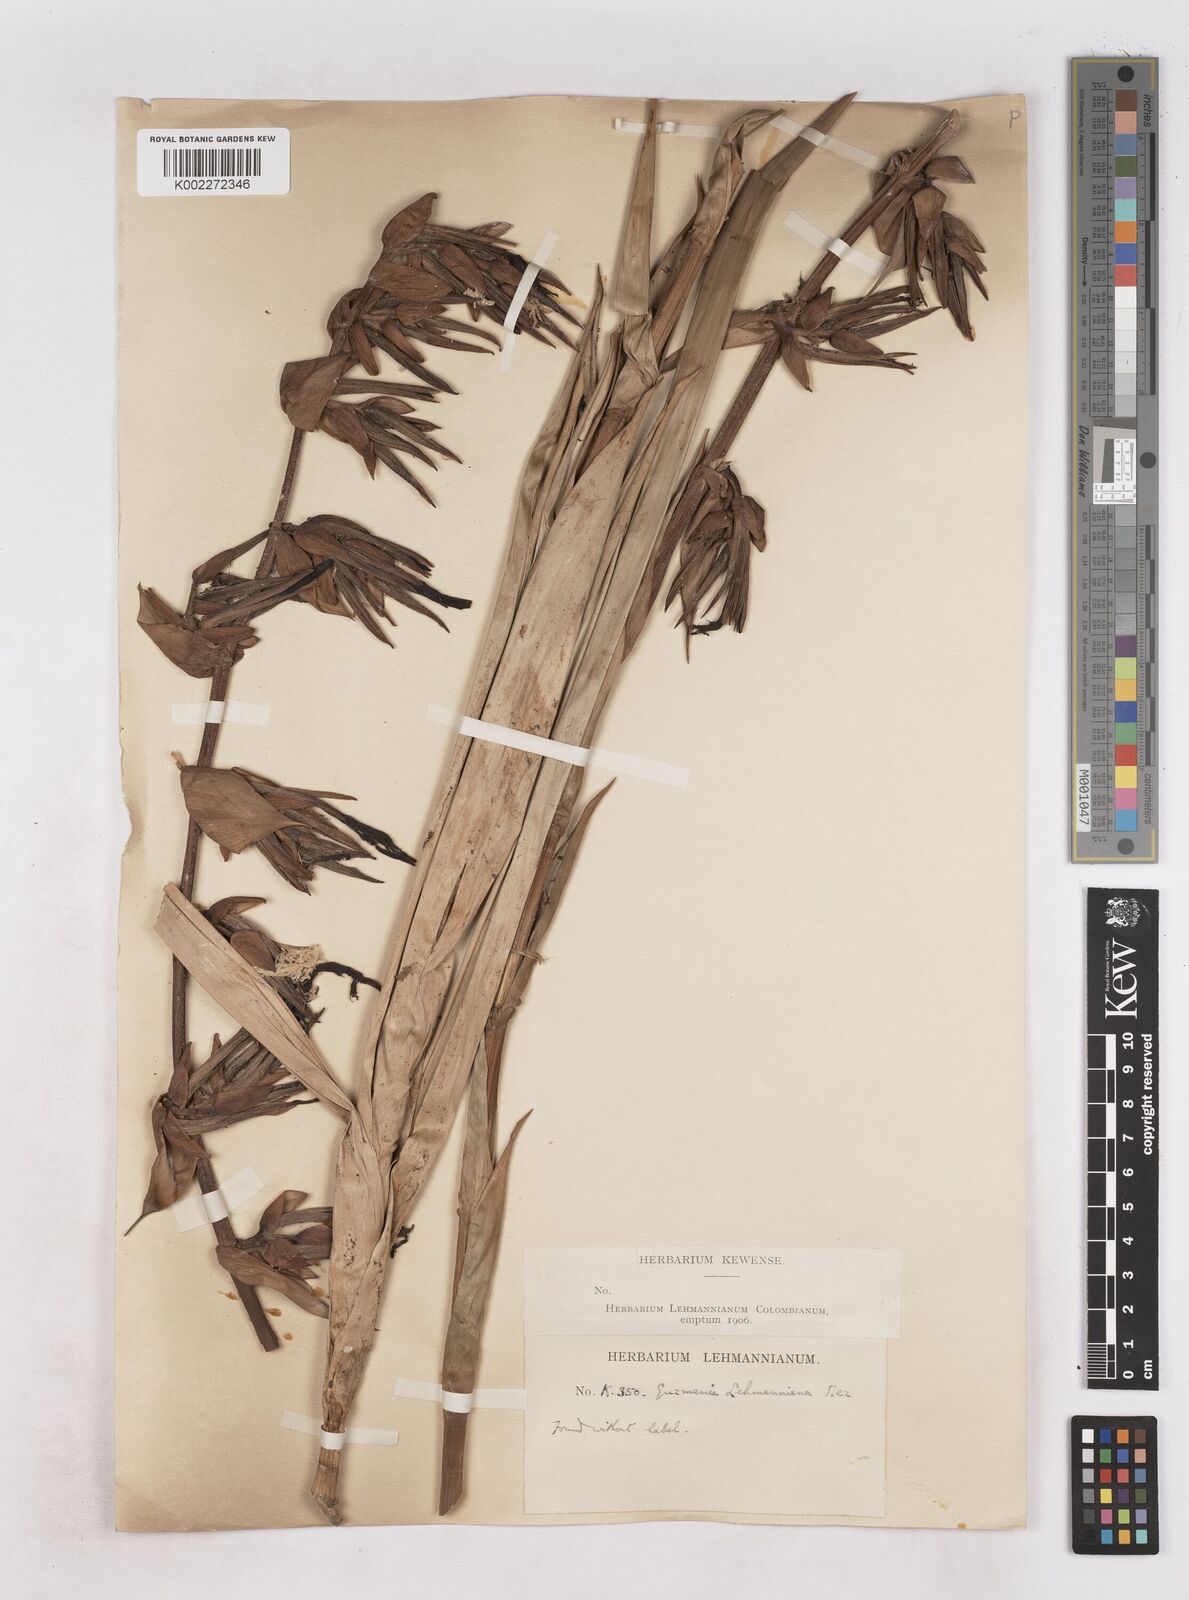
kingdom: Plantae
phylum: Tracheophyta
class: Liliopsida
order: Poales
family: Bromeliaceae
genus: Guzmania
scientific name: Guzmania lehmanniana
